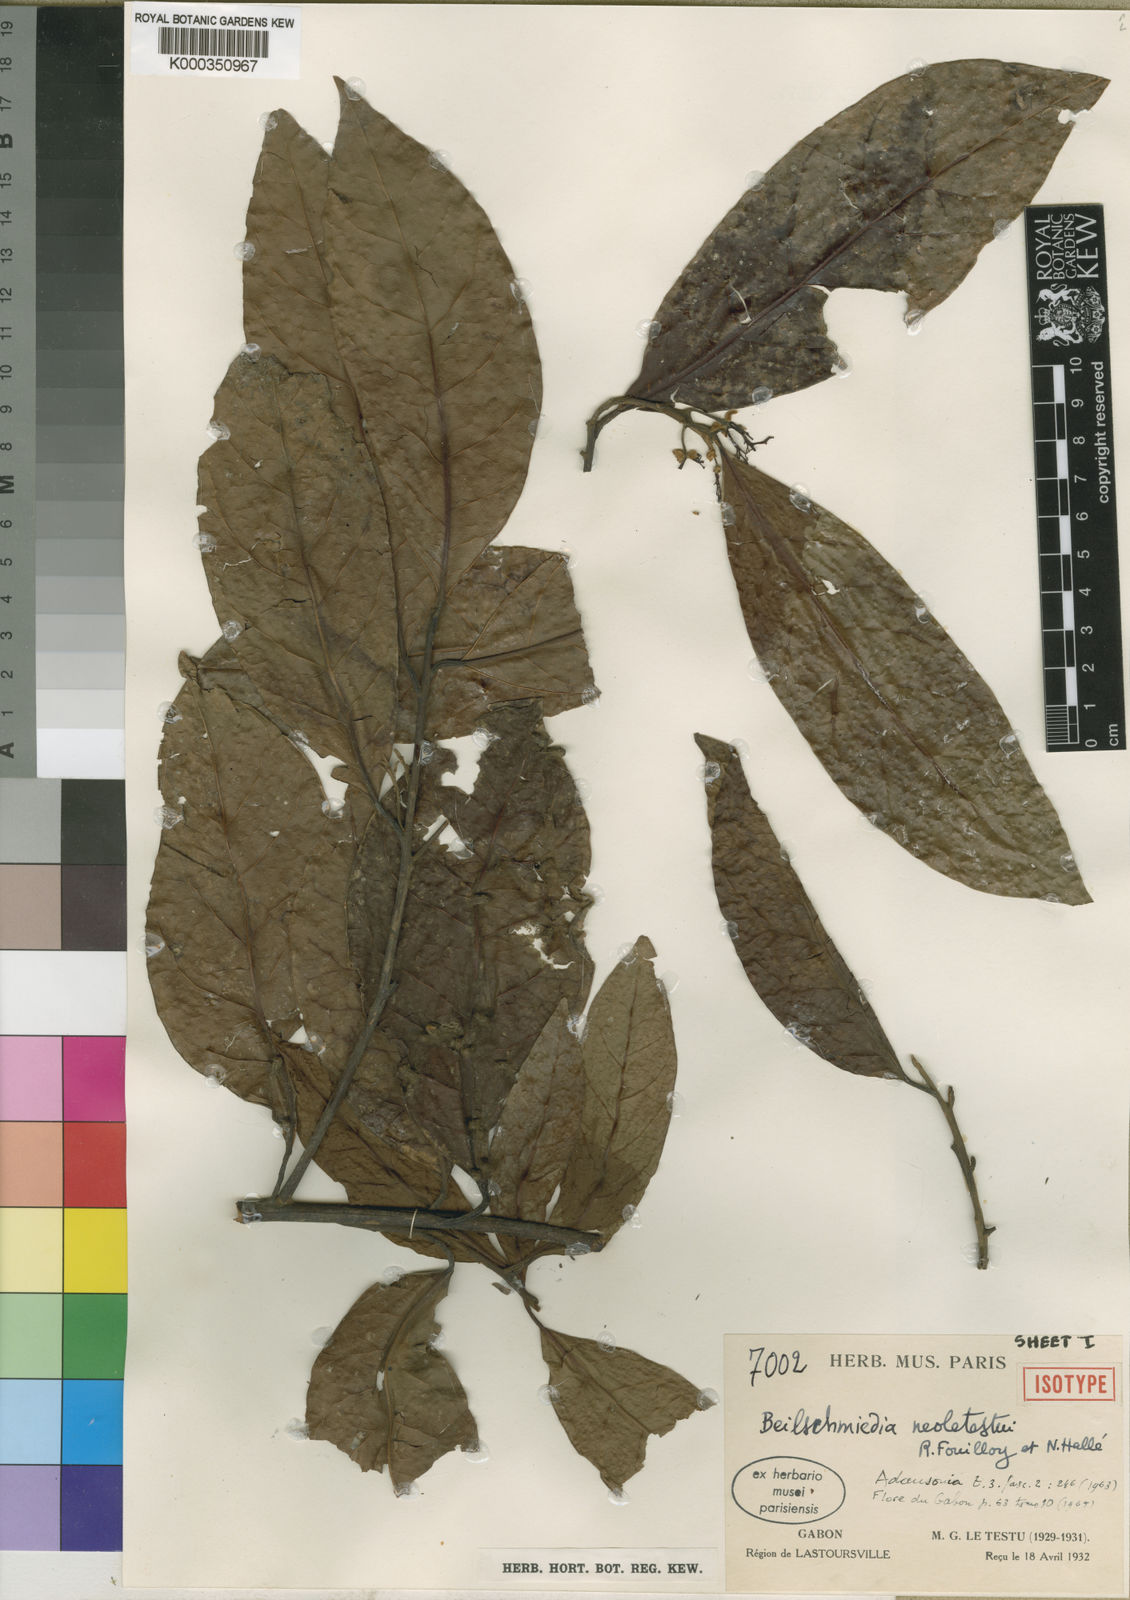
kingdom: Plantae
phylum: Tracheophyta
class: Magnoliopsida
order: Laurales
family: Lauraceae
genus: Beilschmiedia
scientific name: Beilschmiedia
